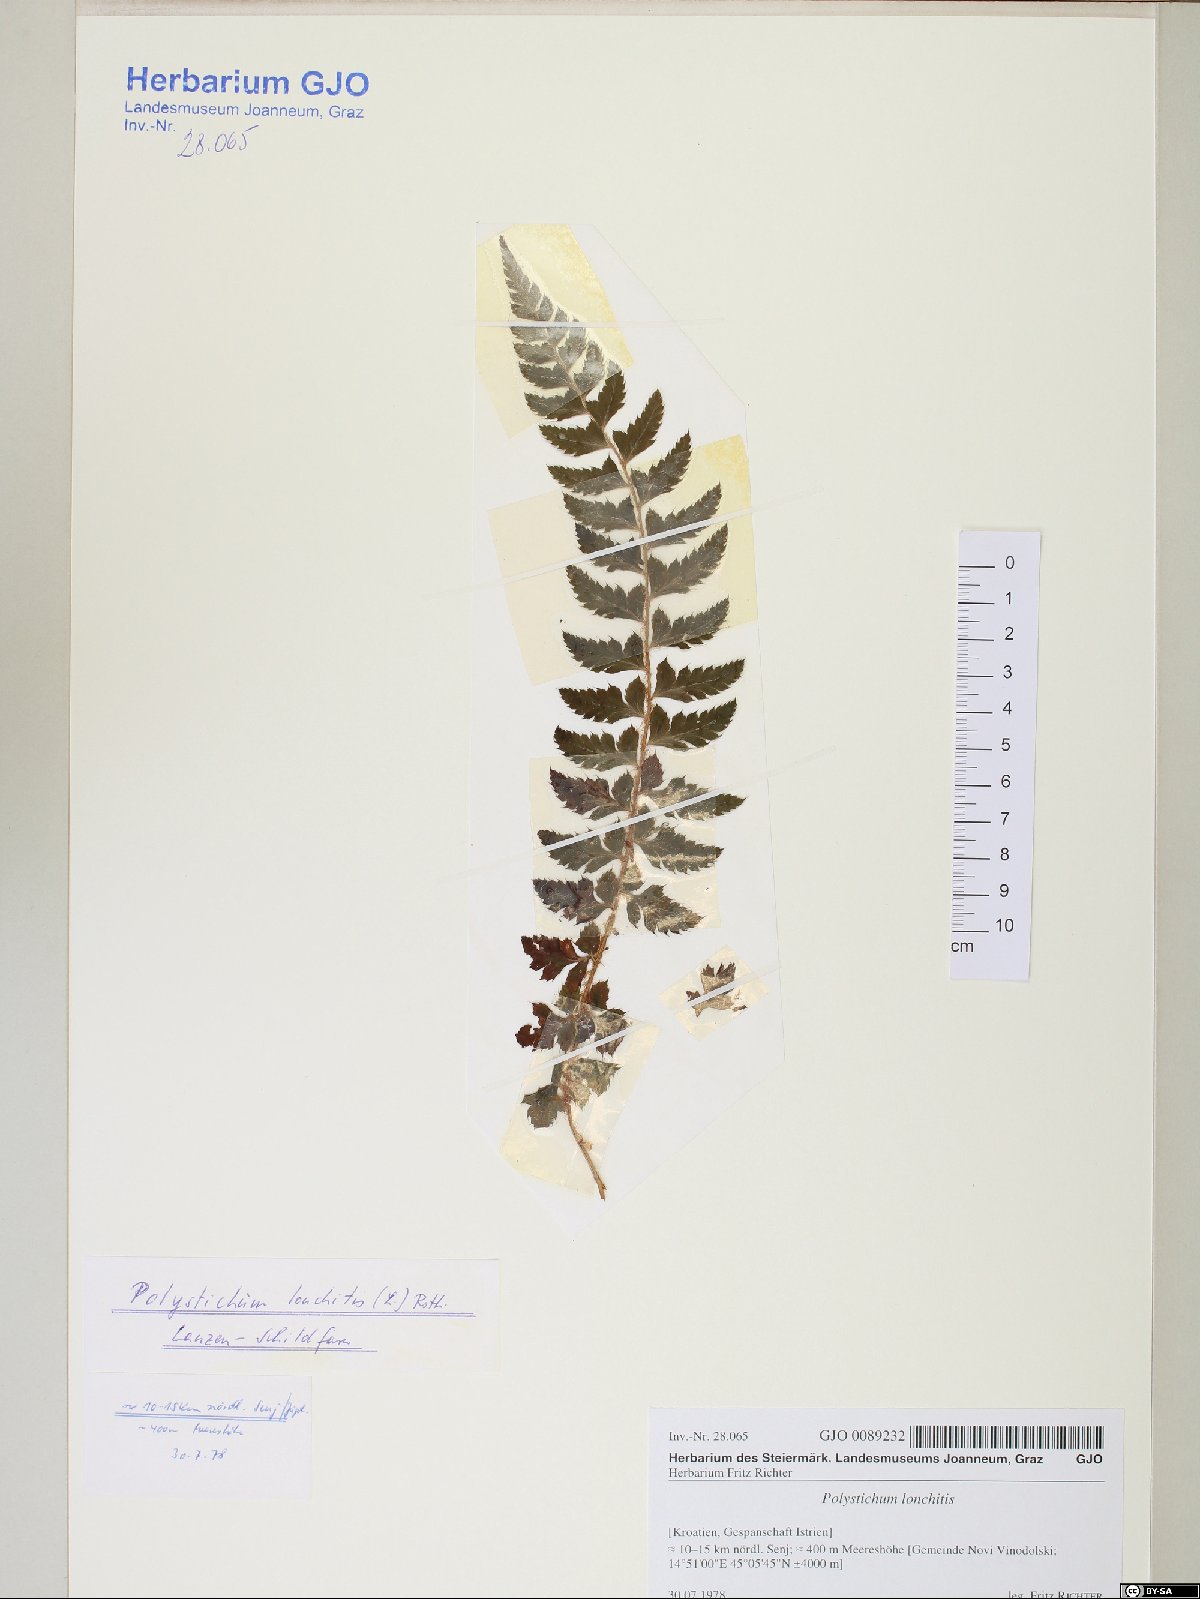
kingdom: Plantae
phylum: Tracheophyta
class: Polypodiopsida
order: Polypodiales
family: Dryopteridaceae
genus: Polystichum
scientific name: Polystichum lonchitis
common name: Holly fern
